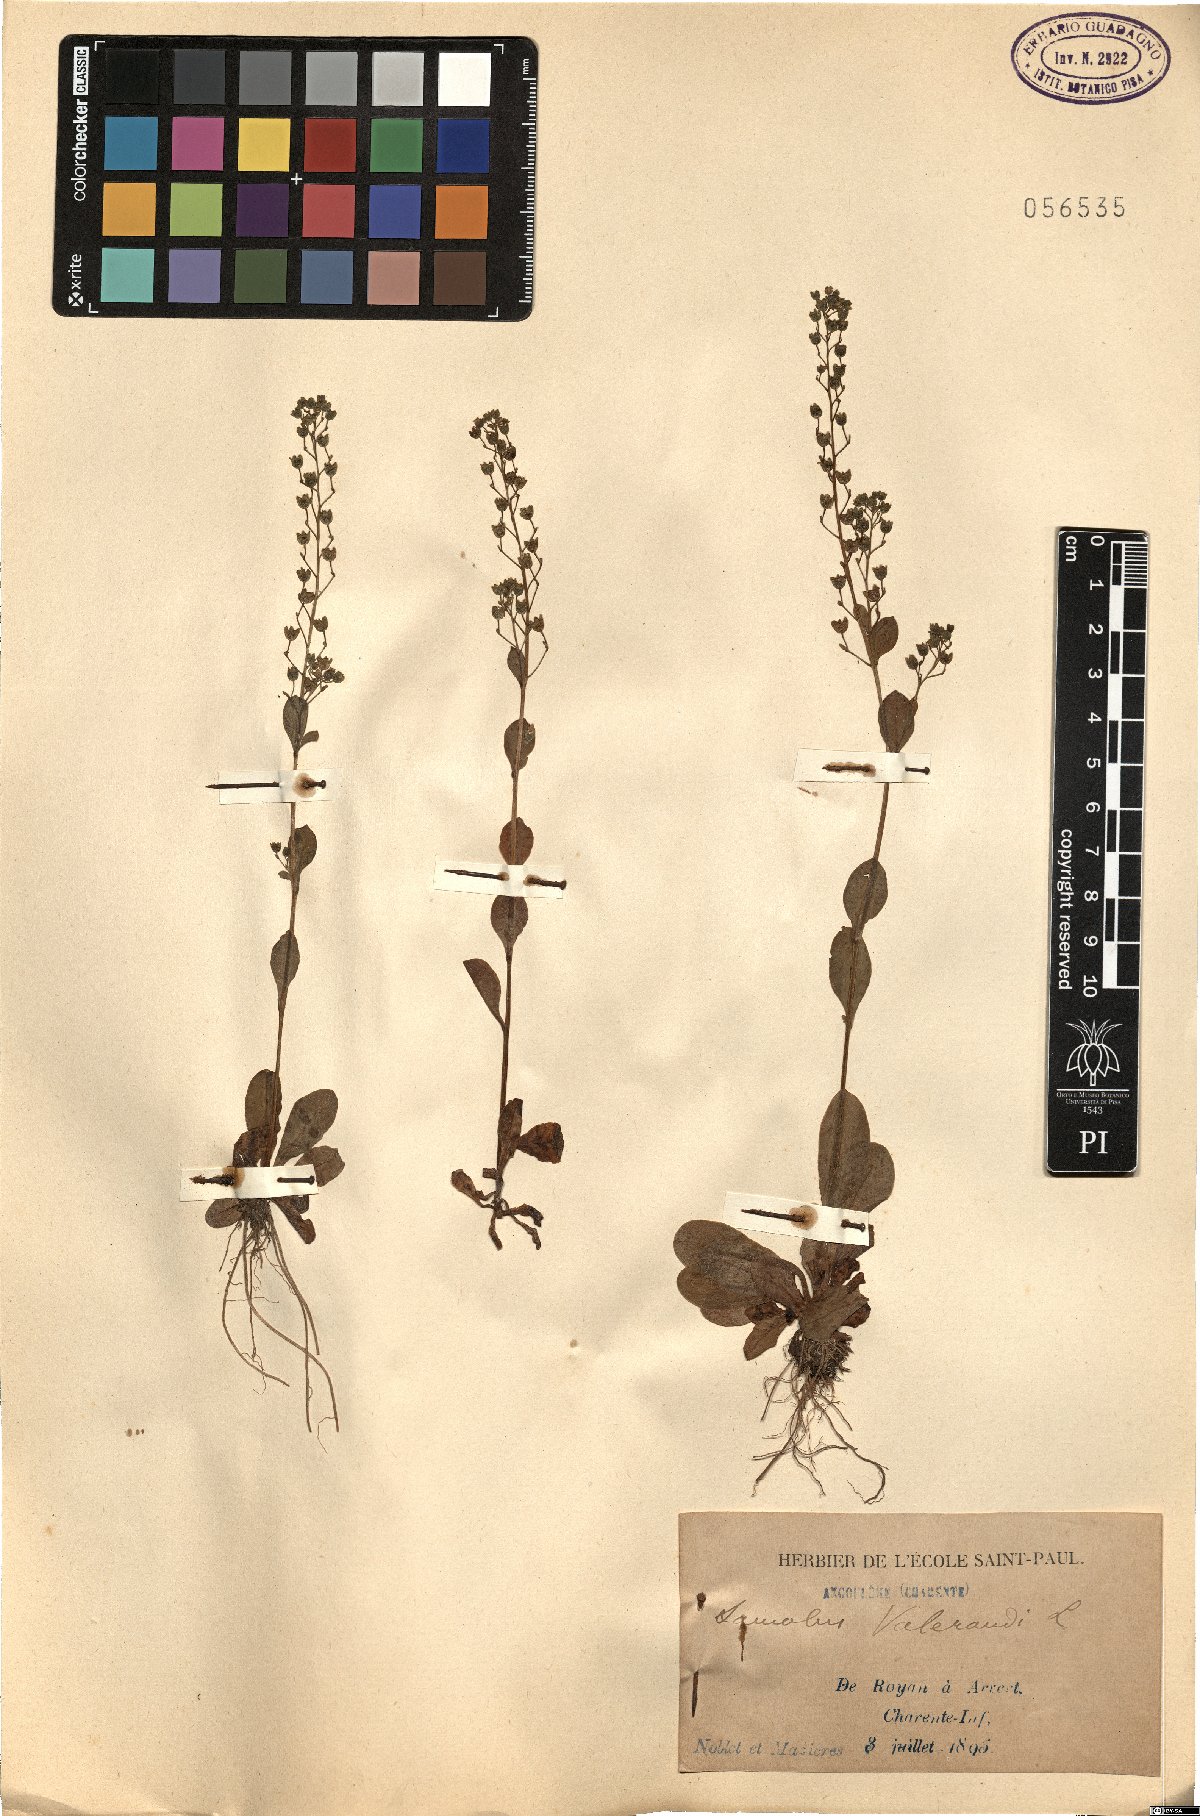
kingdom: Plantae
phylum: Tracheophyta
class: Magnoliopsida
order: Ericales
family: Primulaceae
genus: Samolus
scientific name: Samolus valerandi
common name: Brookweed
